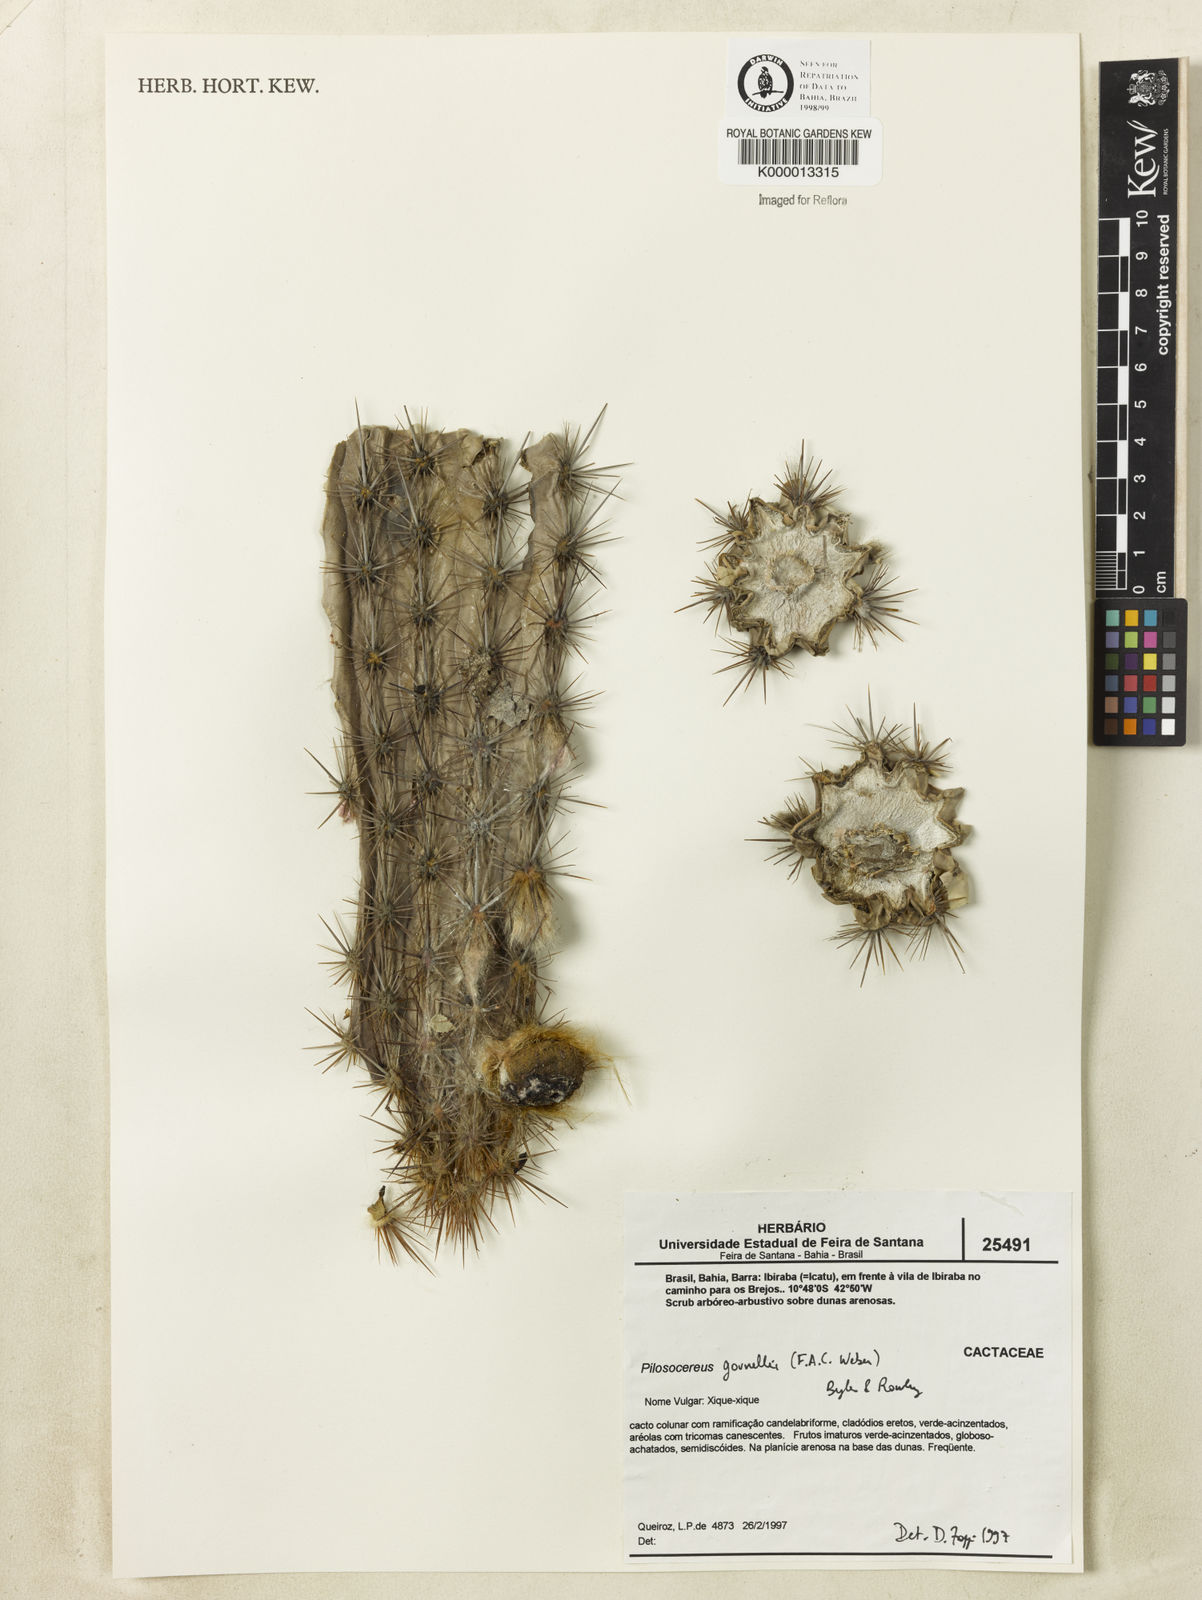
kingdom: Plantae
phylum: Tracheophyta
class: Magnoliopsida
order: Caryophyllales
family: Cactaceae
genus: Xiquexique
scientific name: Xiquexique gounellei
